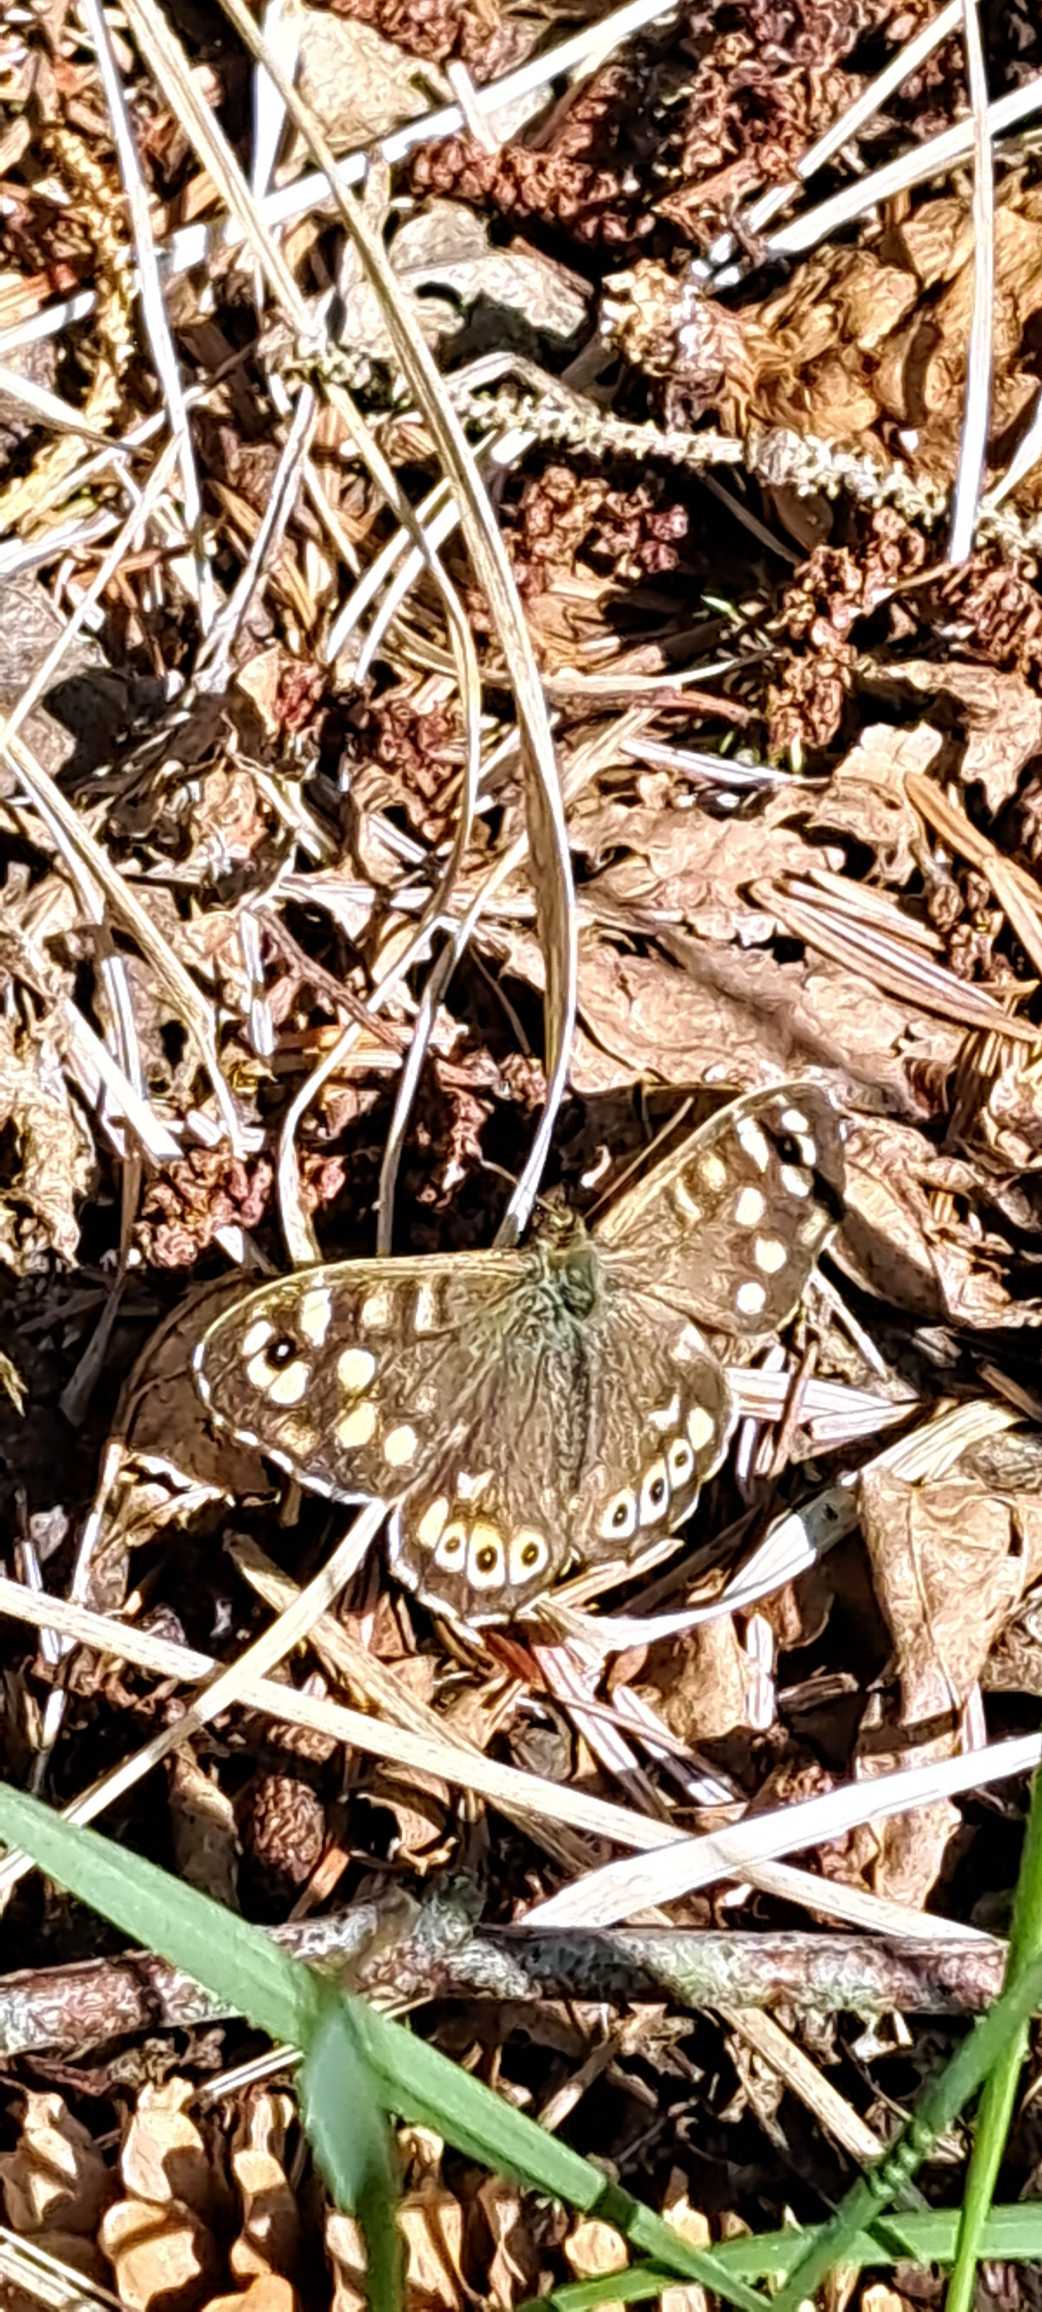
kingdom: Animalia
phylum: Arthropoda
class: Insecta
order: Lepidoptera
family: Nymphalidae
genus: Pararge
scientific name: Pararge aegeria
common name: Skovrandøje
